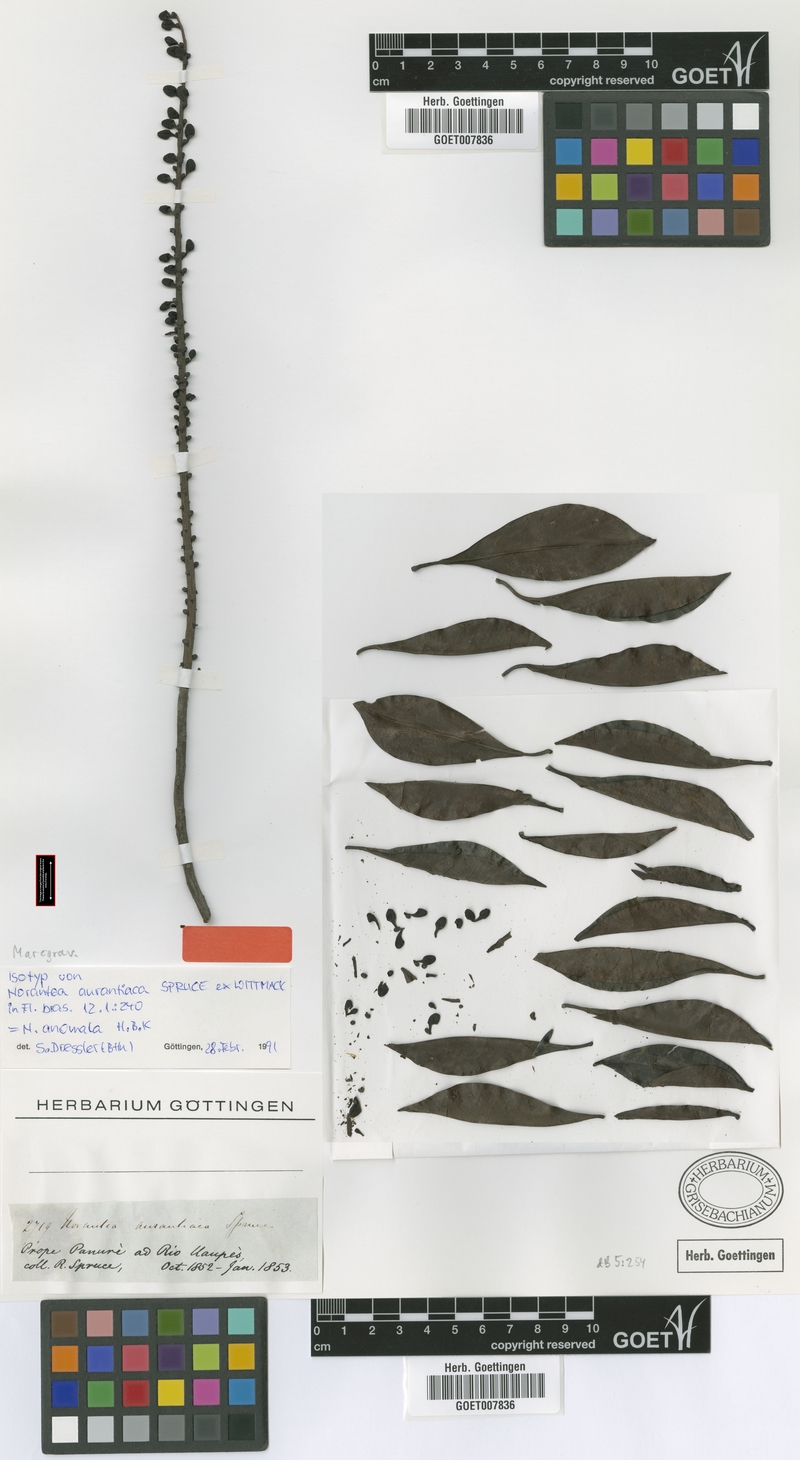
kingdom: Plantae
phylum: Tracheophyta
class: Magnoliopsida
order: Ericales
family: Marcgraviaceae
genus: Sarcopera
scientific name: Sarcopera anomala
